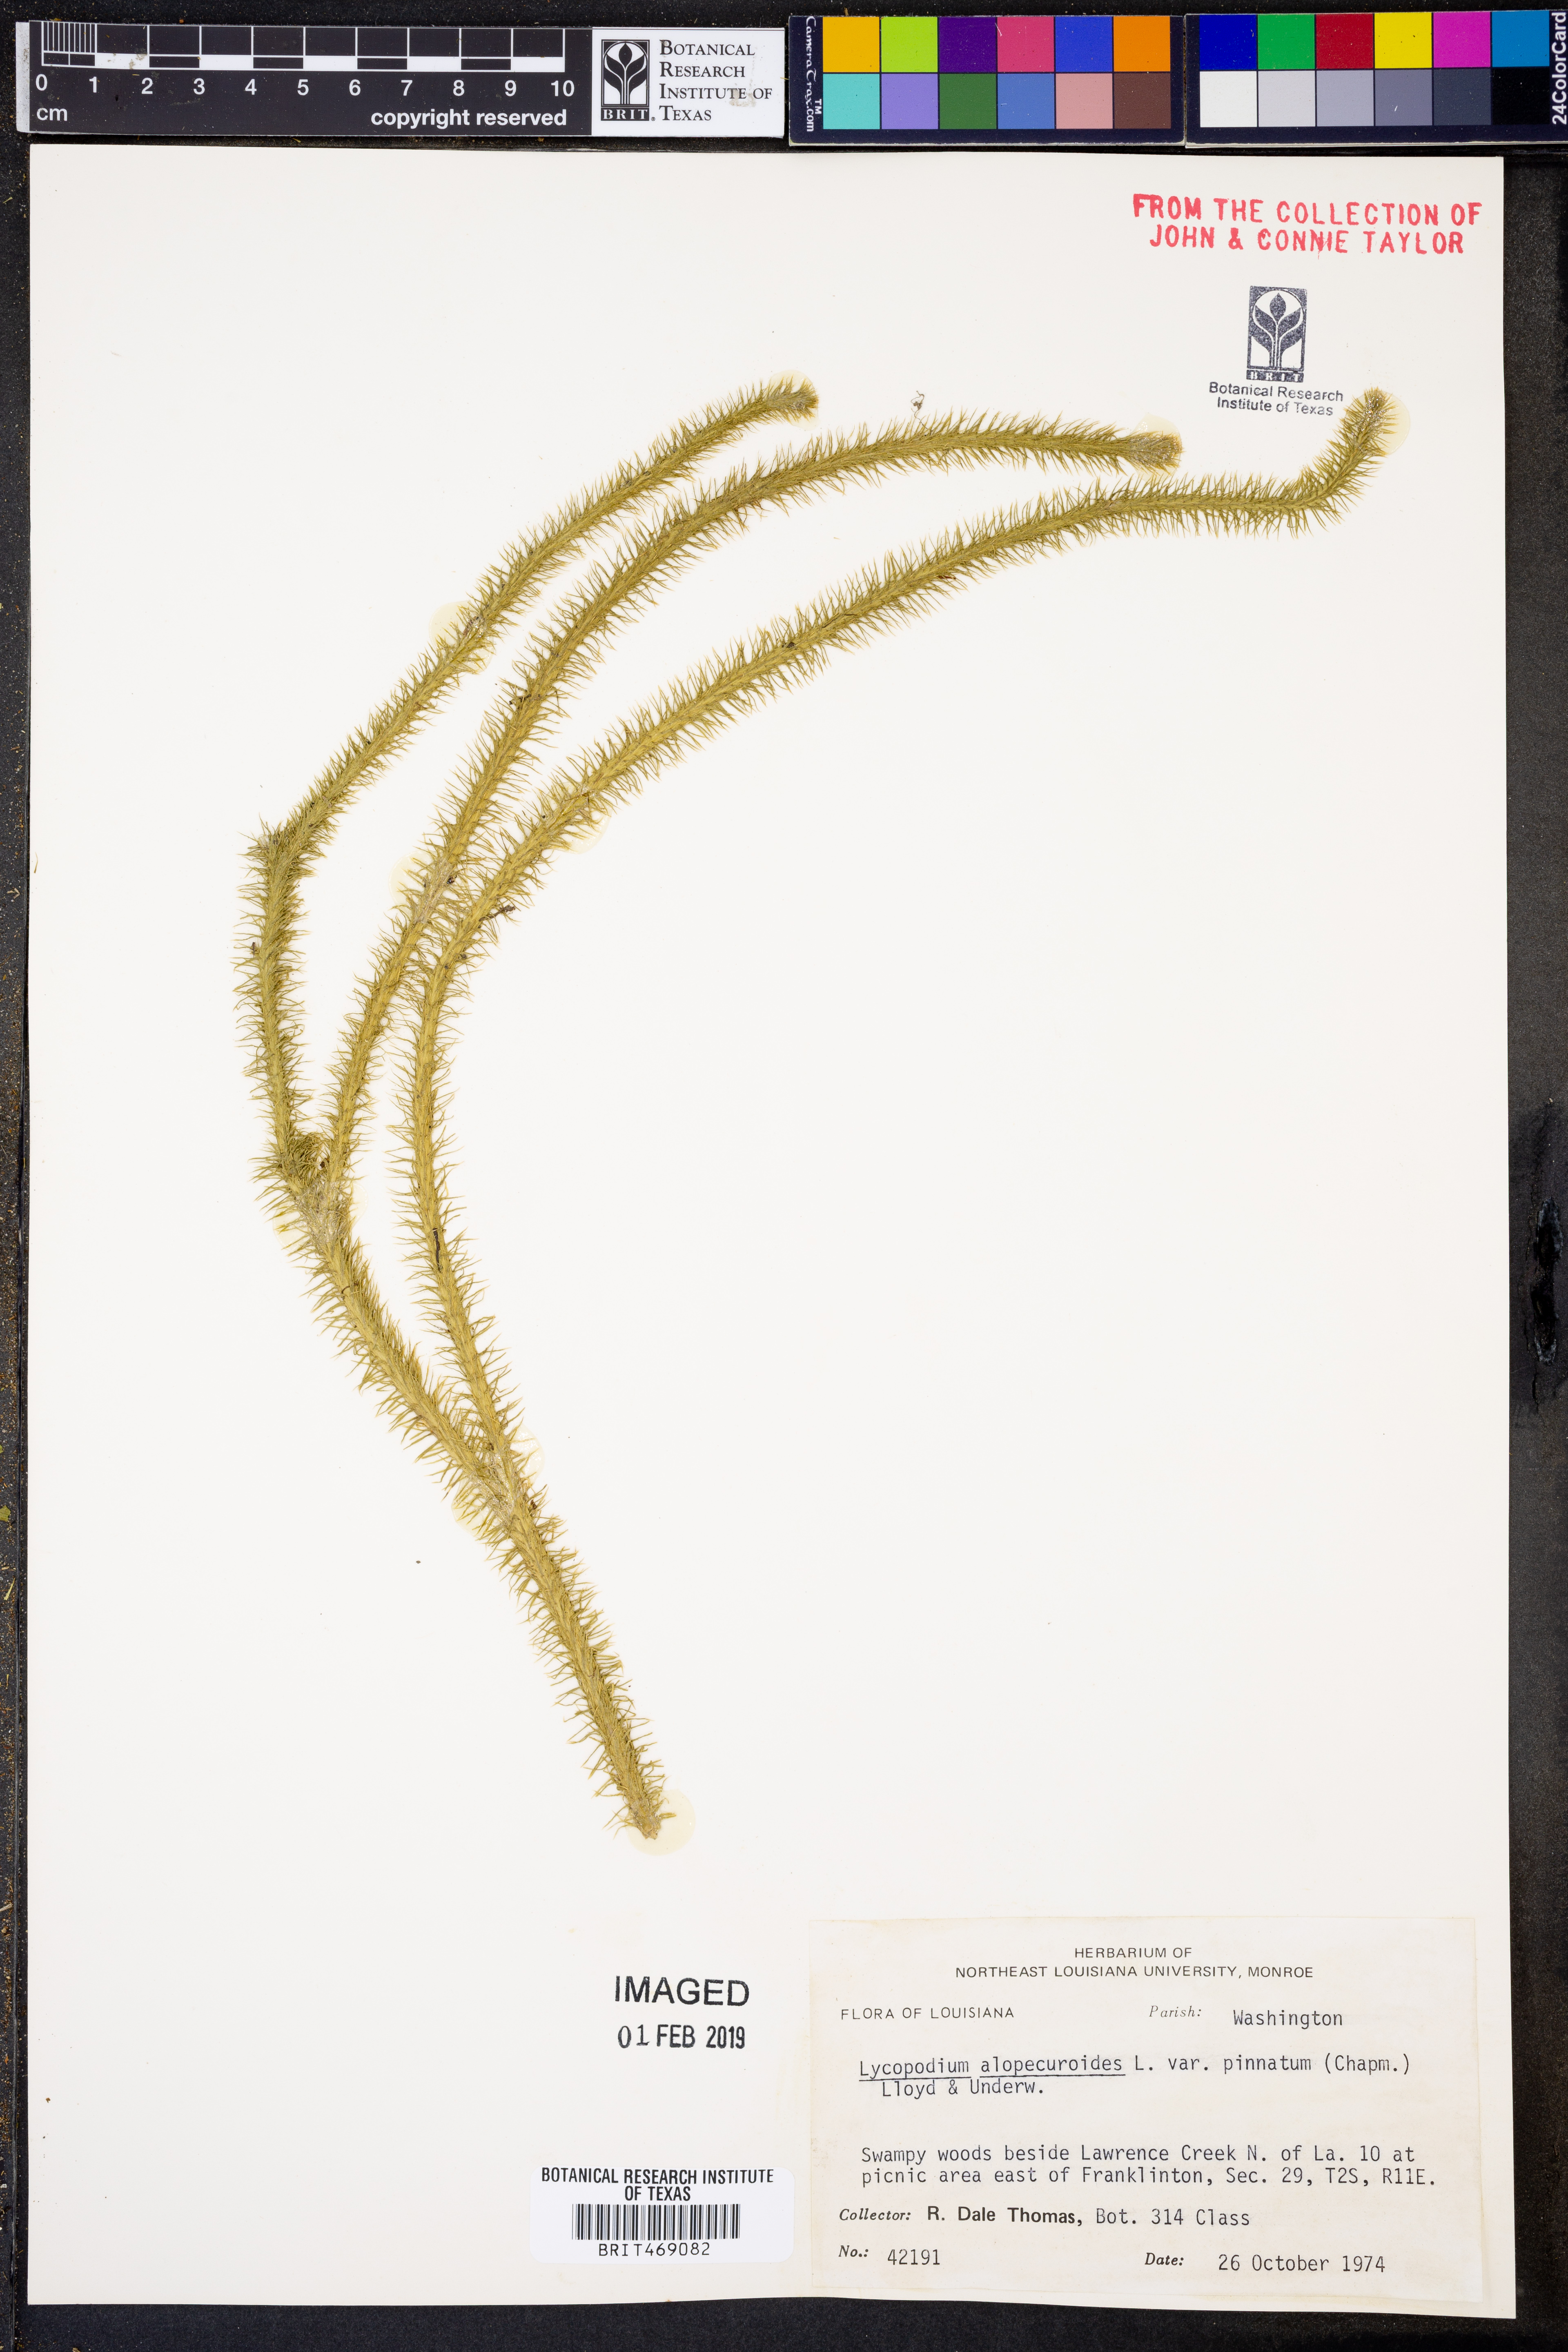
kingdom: Plantae
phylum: Tracheophyta
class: Lycopodiopsida
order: Lycopodiales
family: Lycopodiaceae
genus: Lycopodiella
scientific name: Lycopodiella alopecuroides
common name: Foxtail clubmoss
